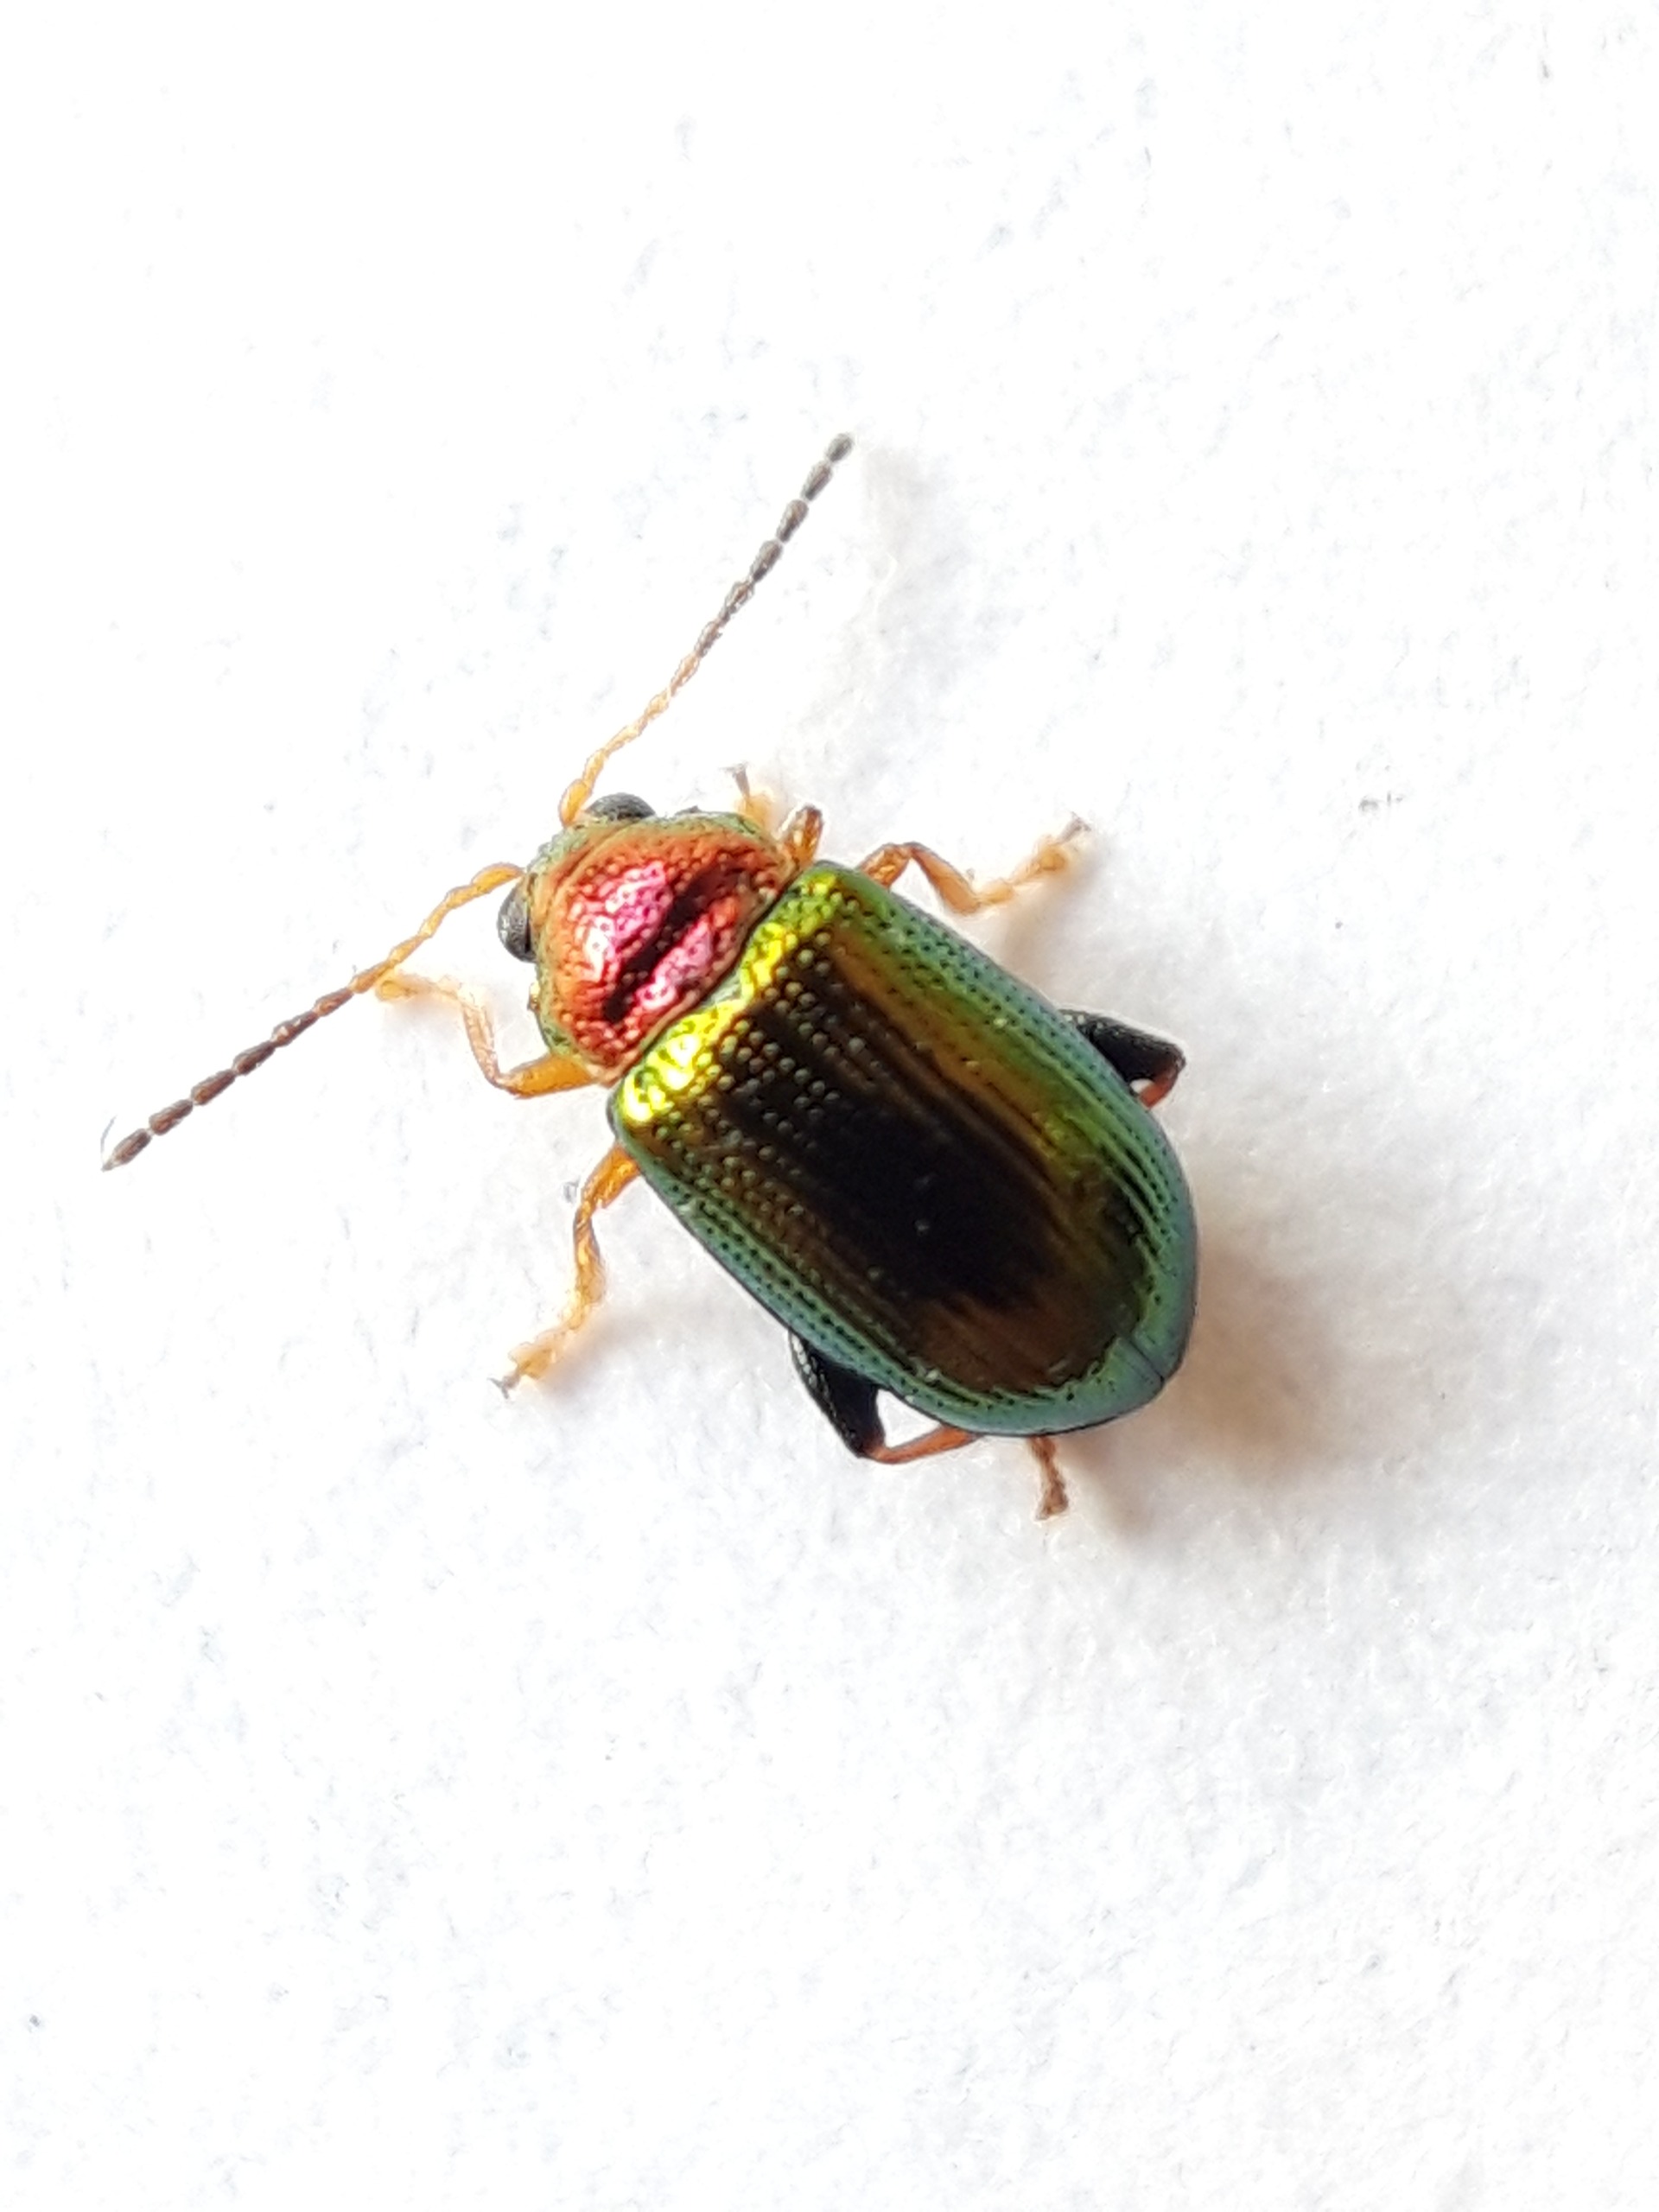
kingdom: Animalia
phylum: Arthropoda
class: Insecta
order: Coleoptera
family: Chrysomelidae
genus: Crepidodera
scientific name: Crepidodera aurata
